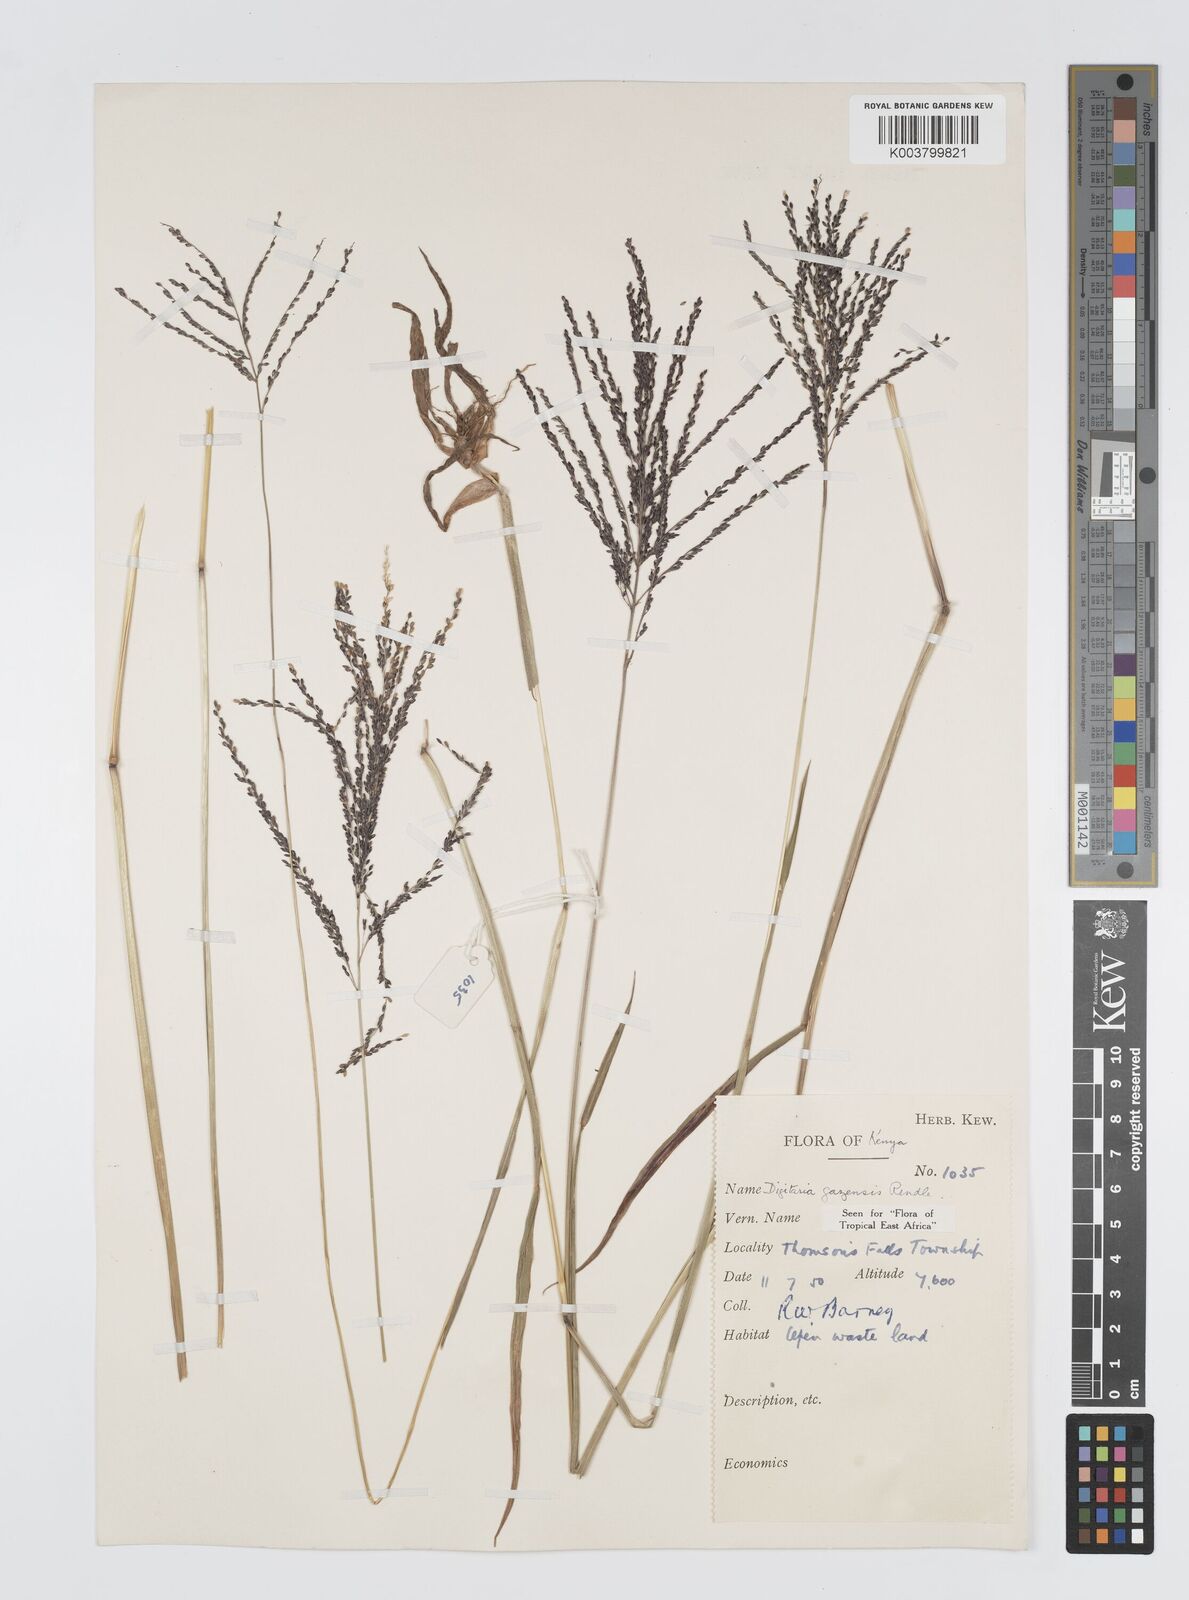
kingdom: Plantae
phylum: Tracheophyta
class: Liliopsida
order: Poales
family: Poaceae
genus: Digitaria
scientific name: Digitaria gazensis
